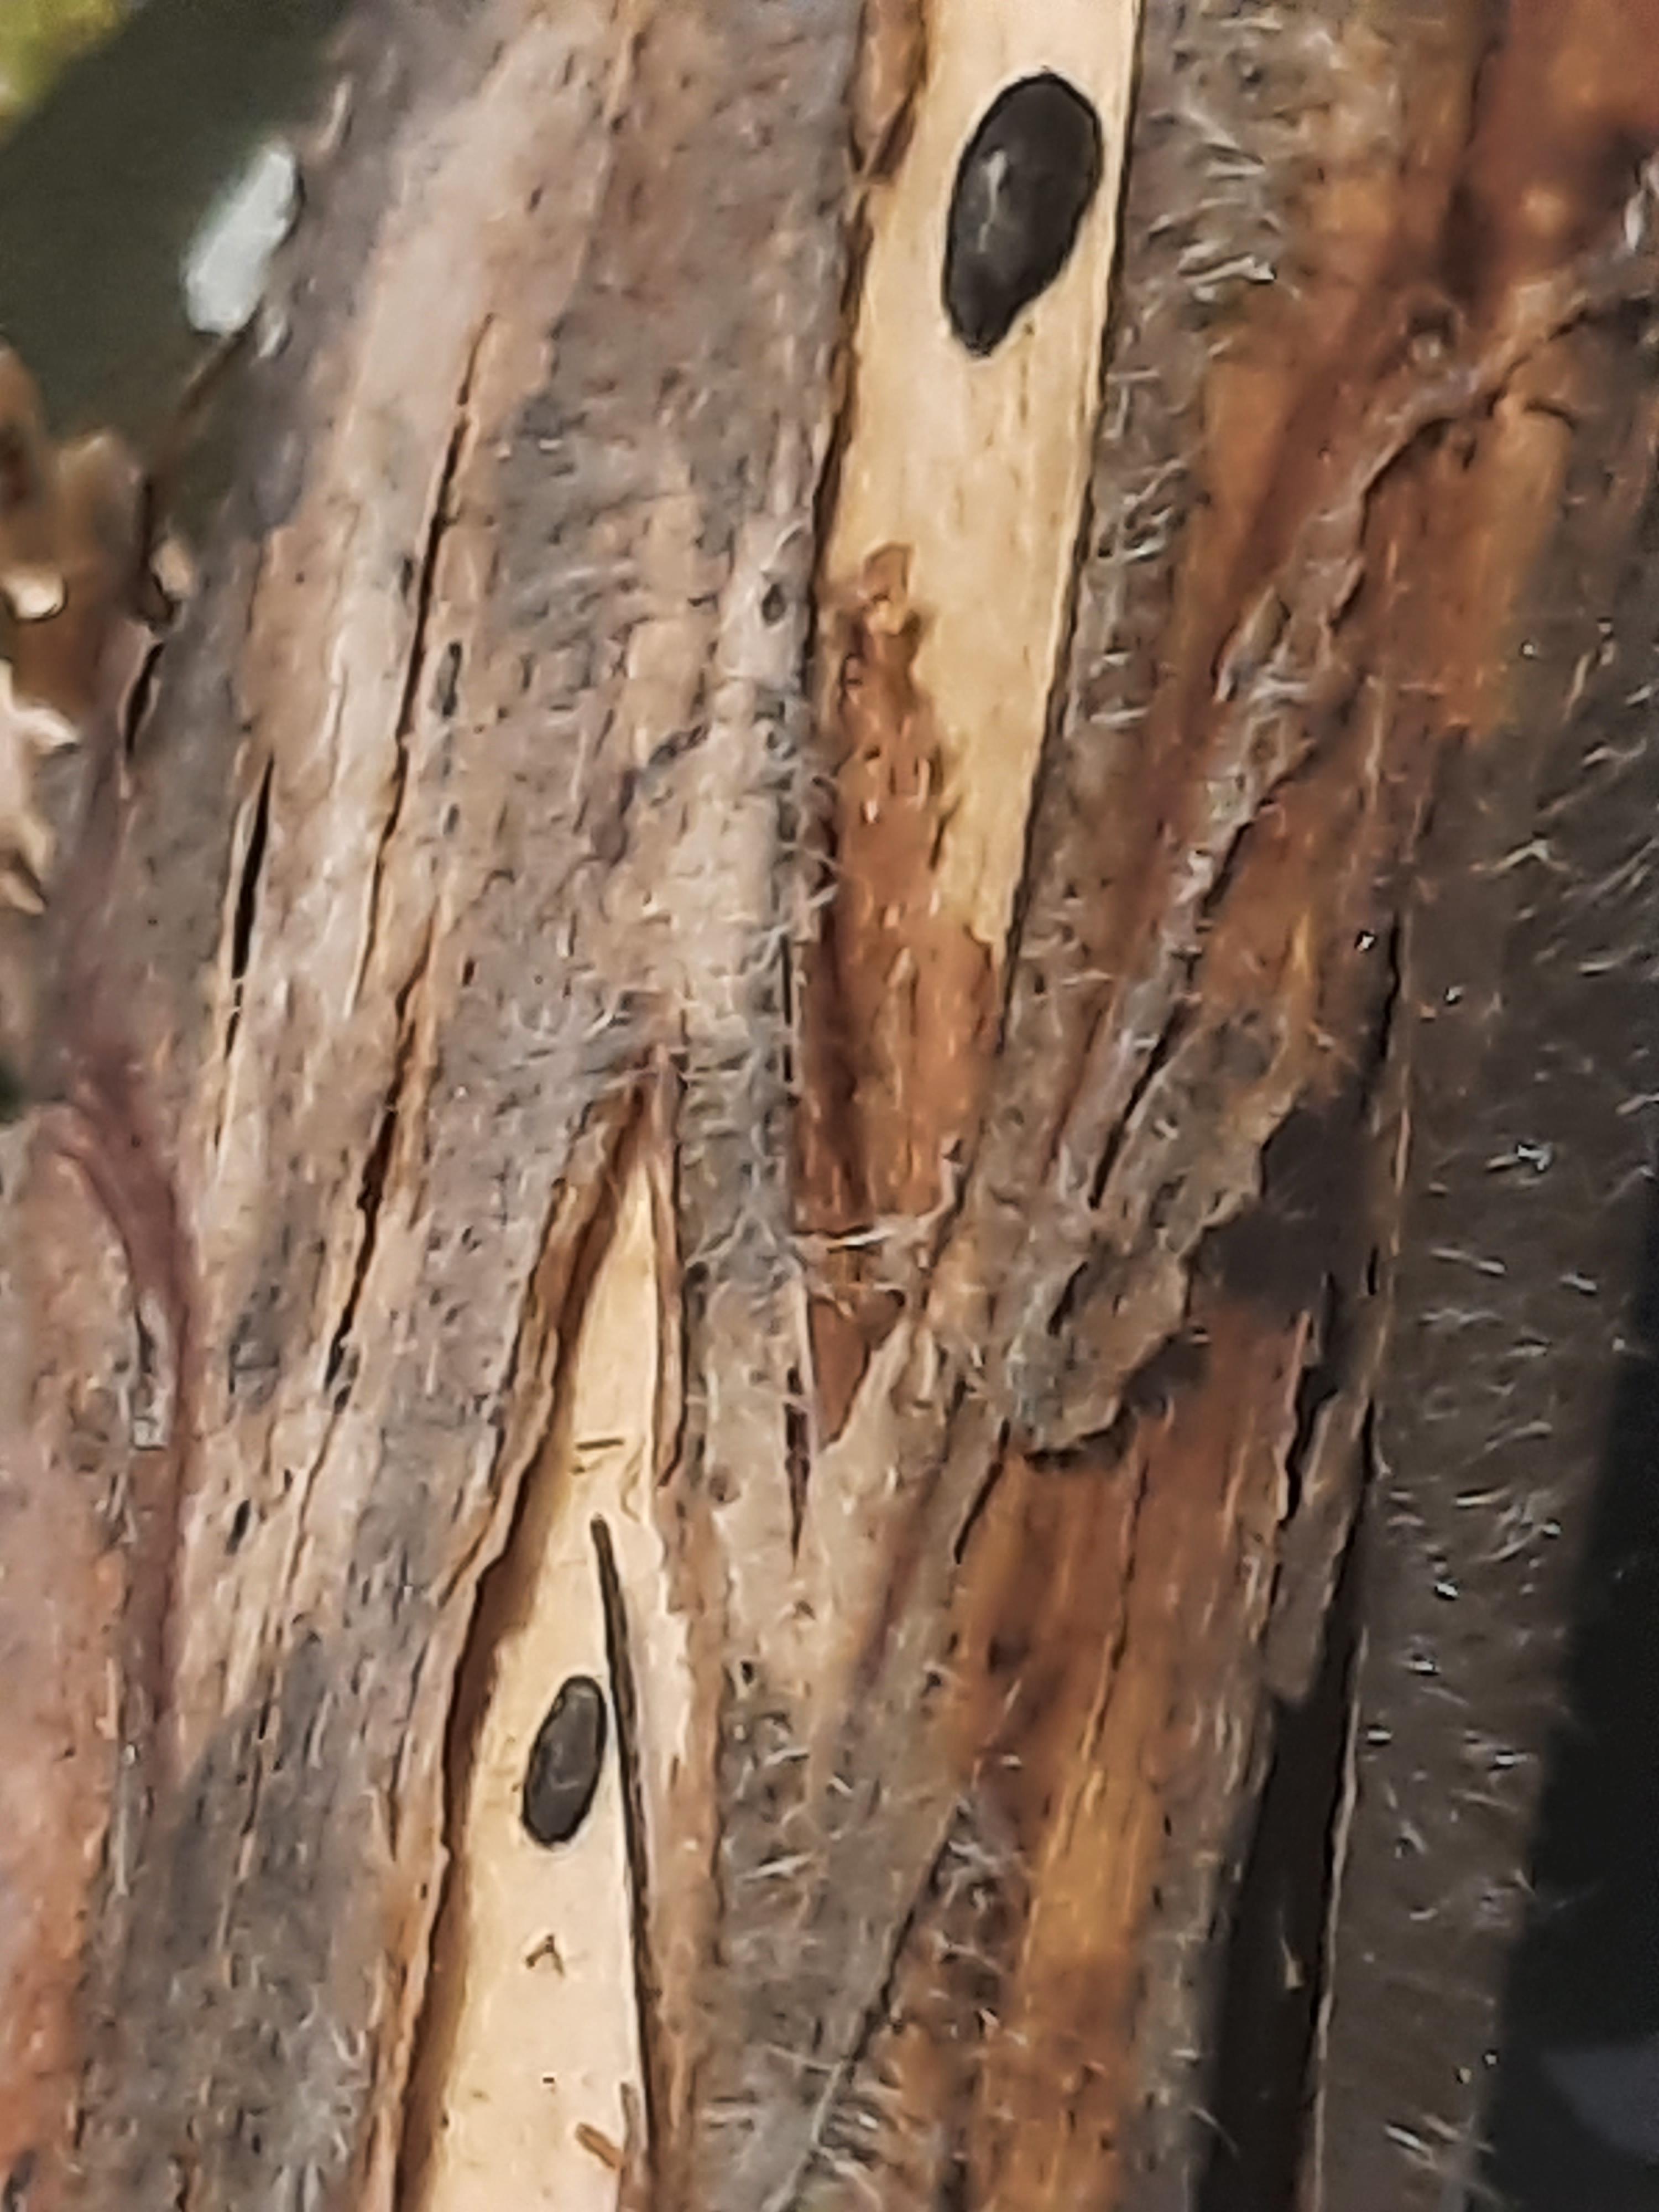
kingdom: Fungi
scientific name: Fungi
